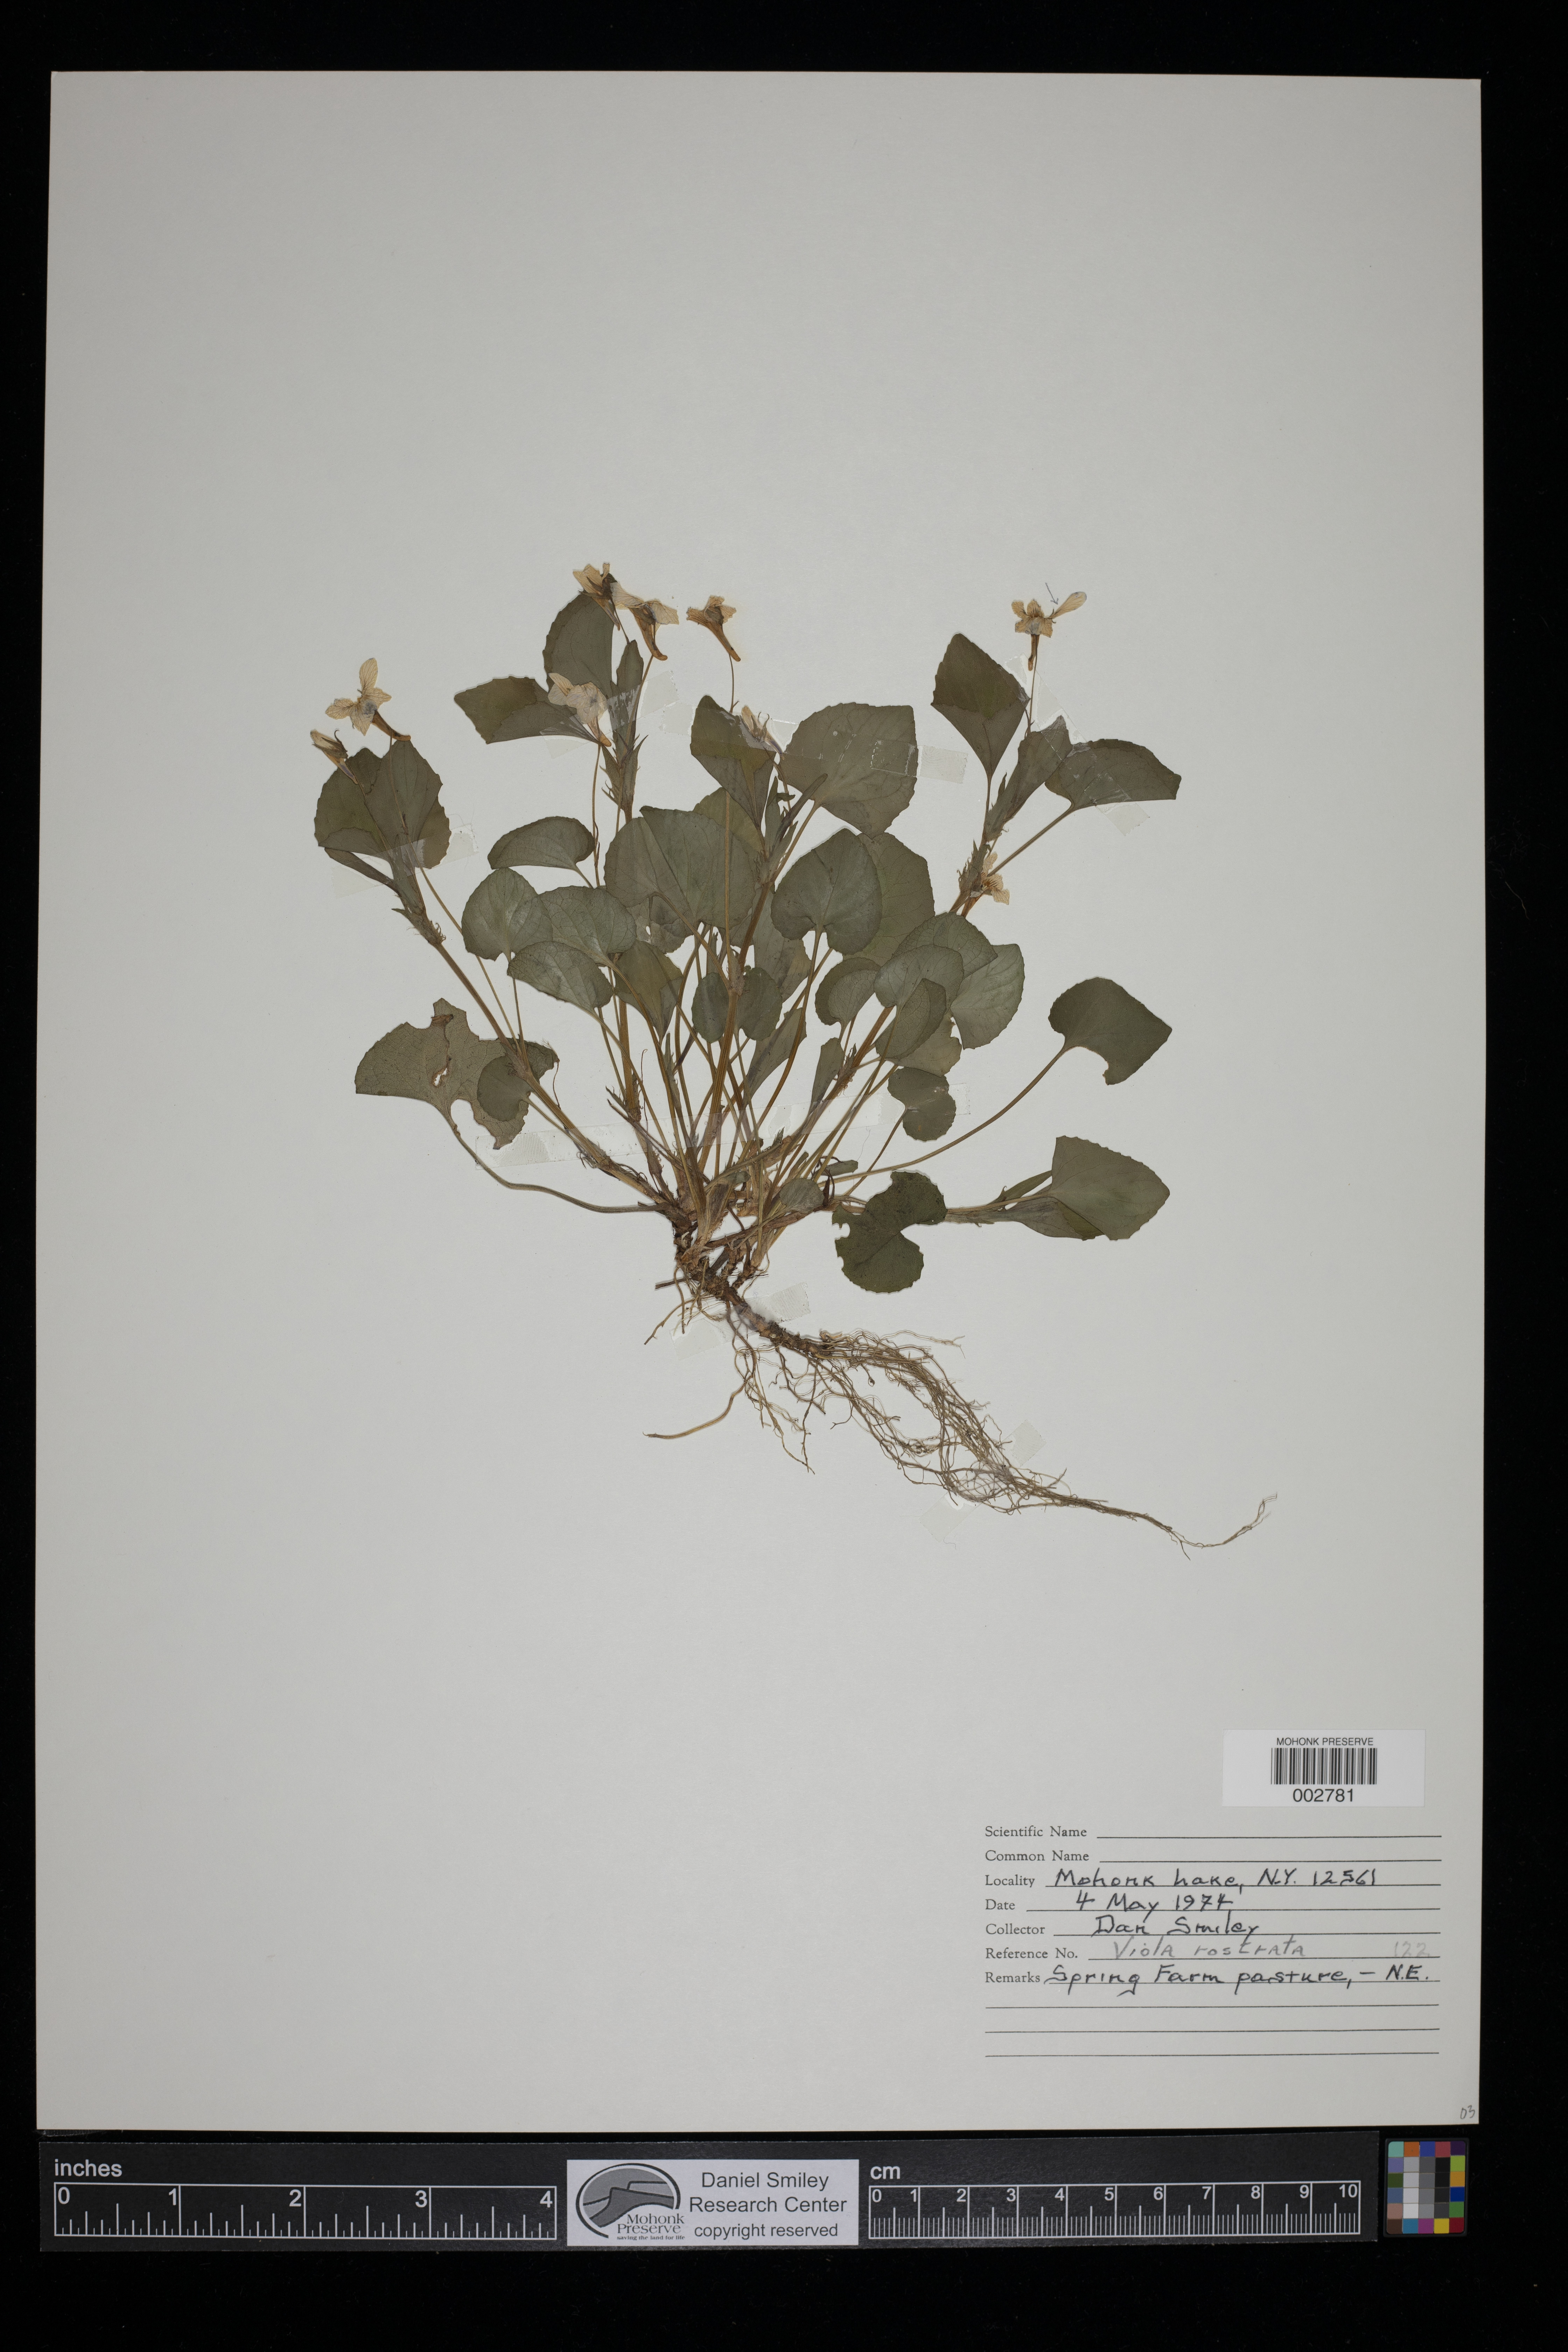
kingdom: Plantae
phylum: Tracheophyta
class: Magnoliopsida
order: Malpighiales
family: Violaceae
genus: Viola
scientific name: Viola rostrata
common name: Long-spur violet
